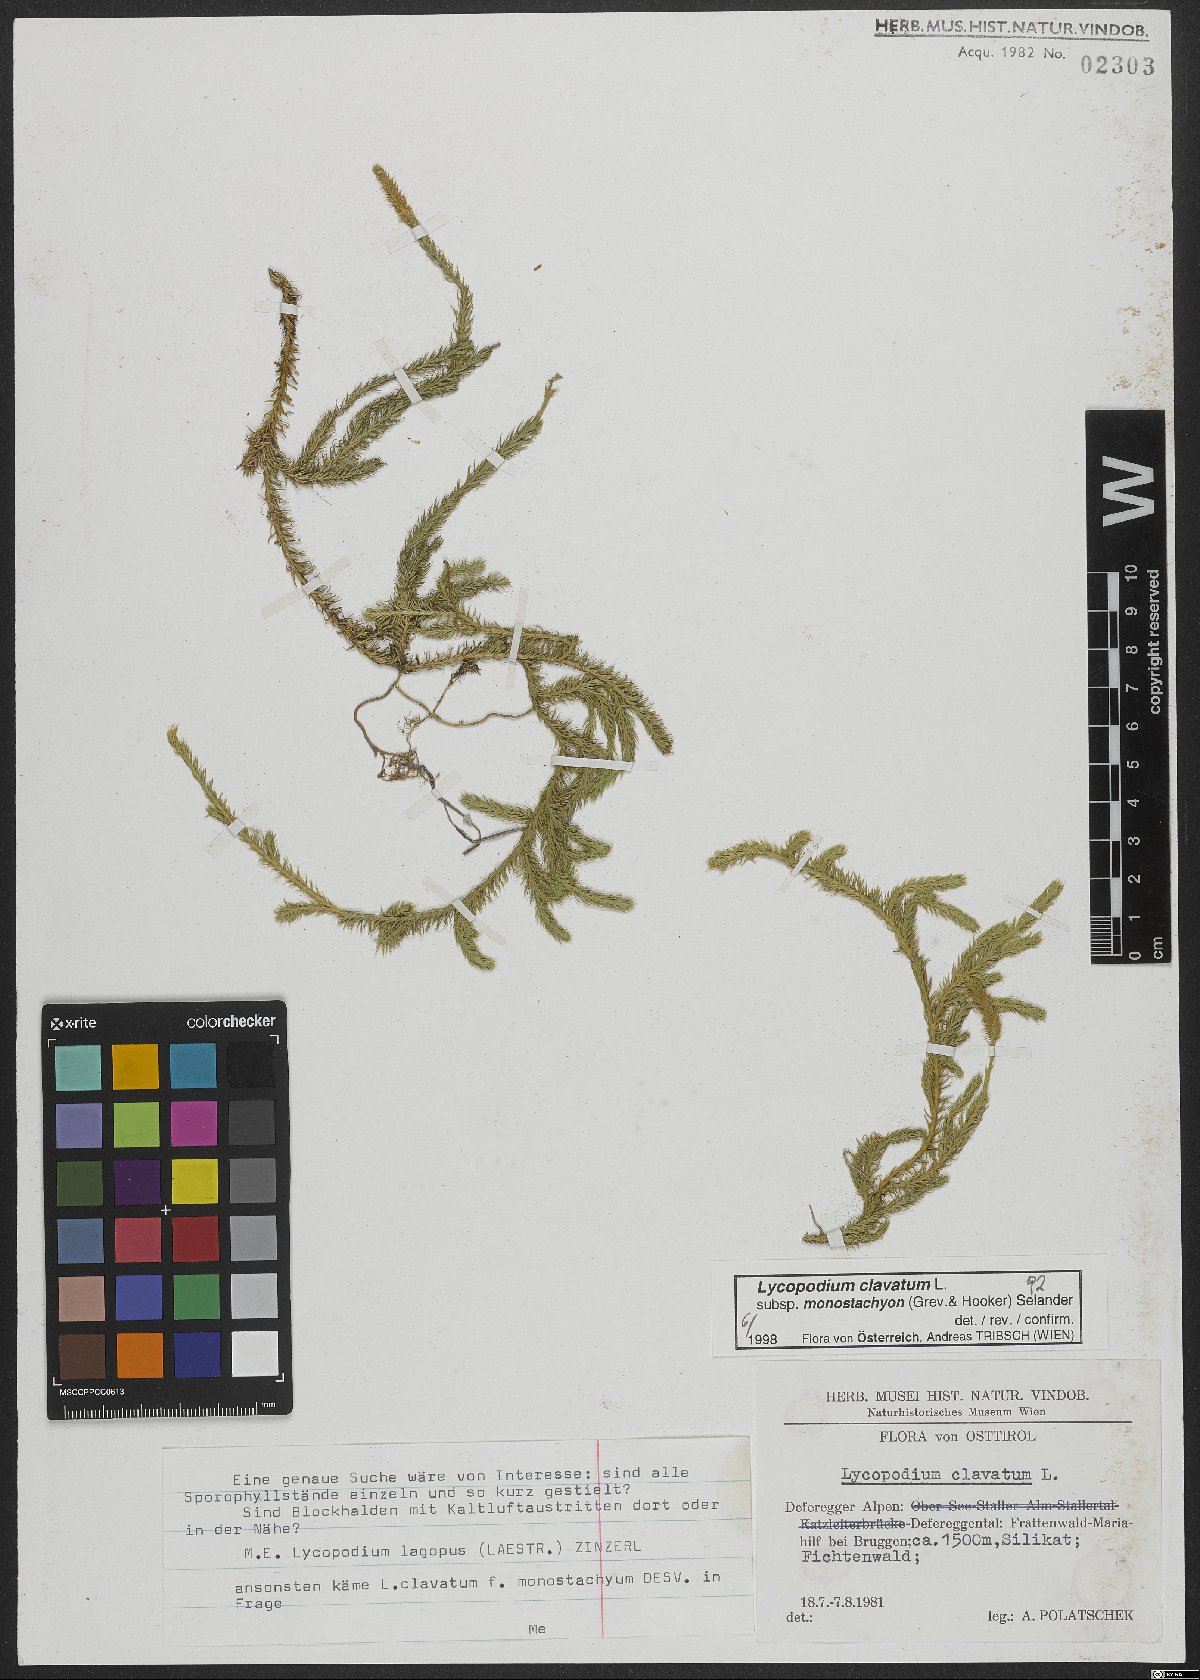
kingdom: Plantae
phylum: Tracheophyta
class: Lycopodiopsida
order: Lycopodiales
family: Lycopodiaceae
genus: Lycopodium
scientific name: Lycopodium lagopus
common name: One-cone clubmoss
